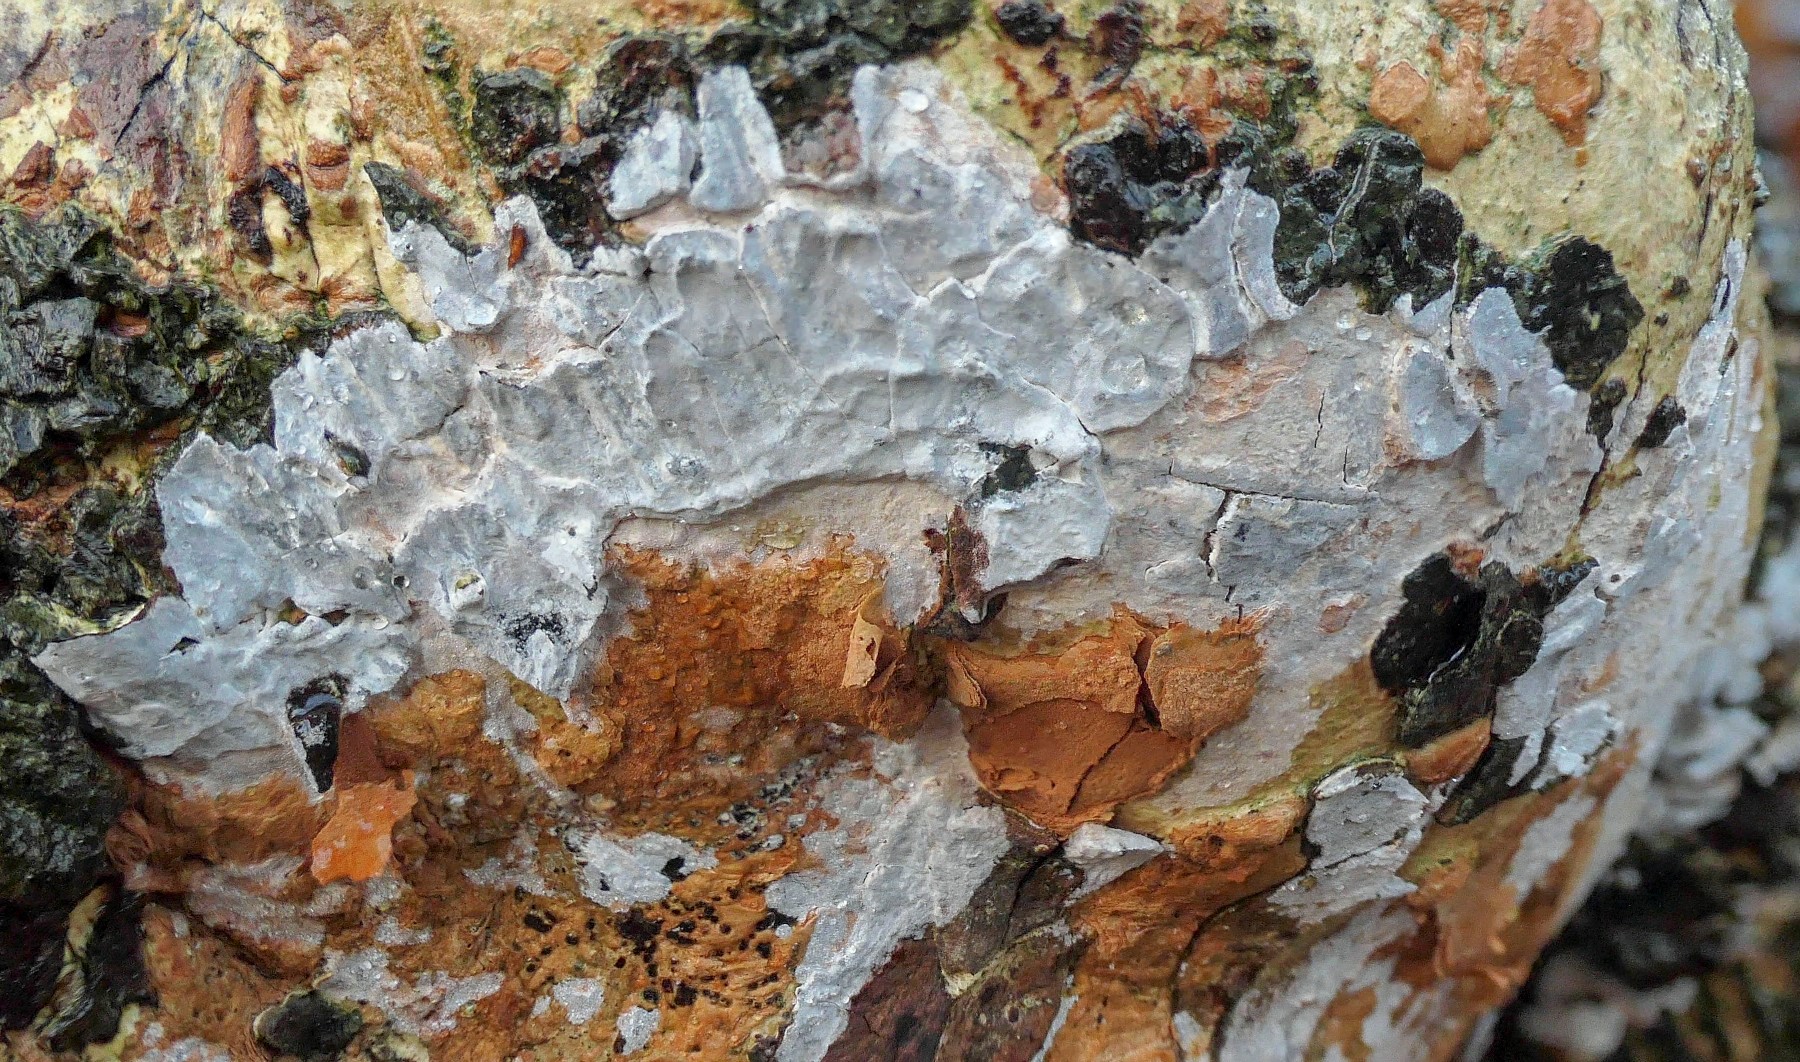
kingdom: Fungi
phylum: Basidiomycota
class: Agaricomycetes
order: Agaricales
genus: Dendrothele
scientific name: Dendrothele acerina
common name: navr-kalkplet
